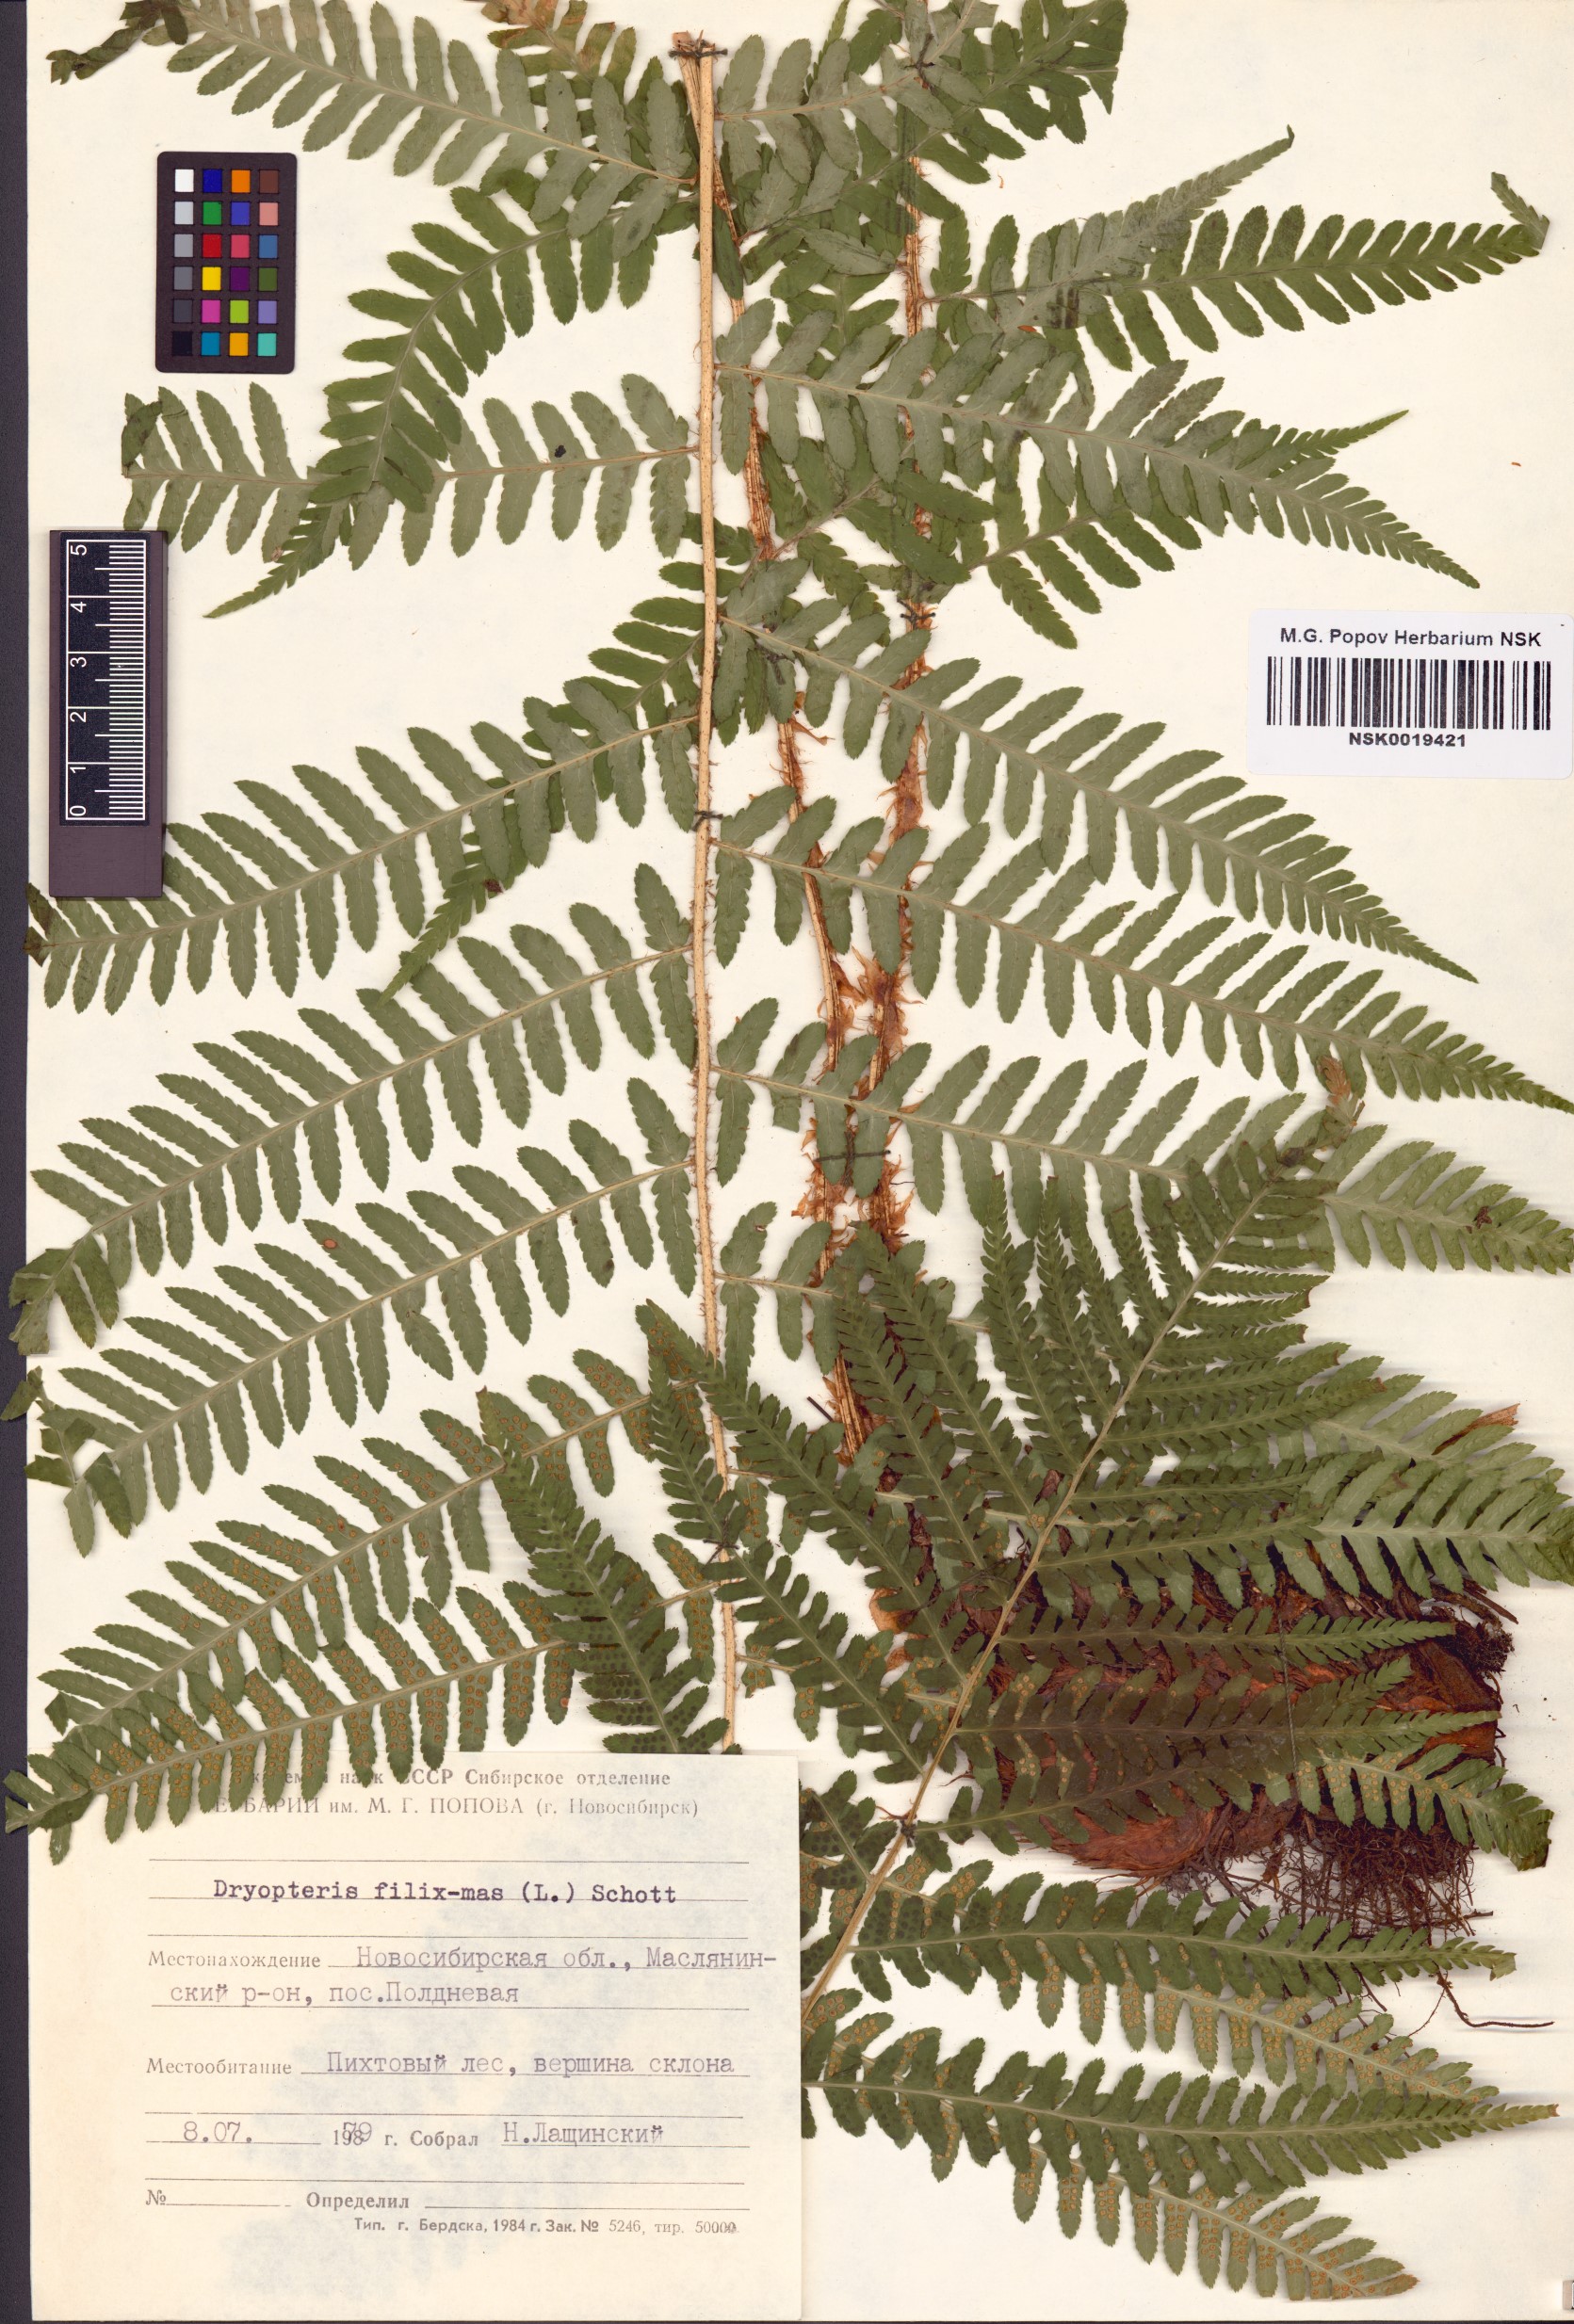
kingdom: Plantae
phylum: Tracheophyta
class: Polypodiopsida
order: Polypodiales
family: Dryopteridaceae
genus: Dryopteris
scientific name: Dryopteris filix-mas
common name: Male fern
